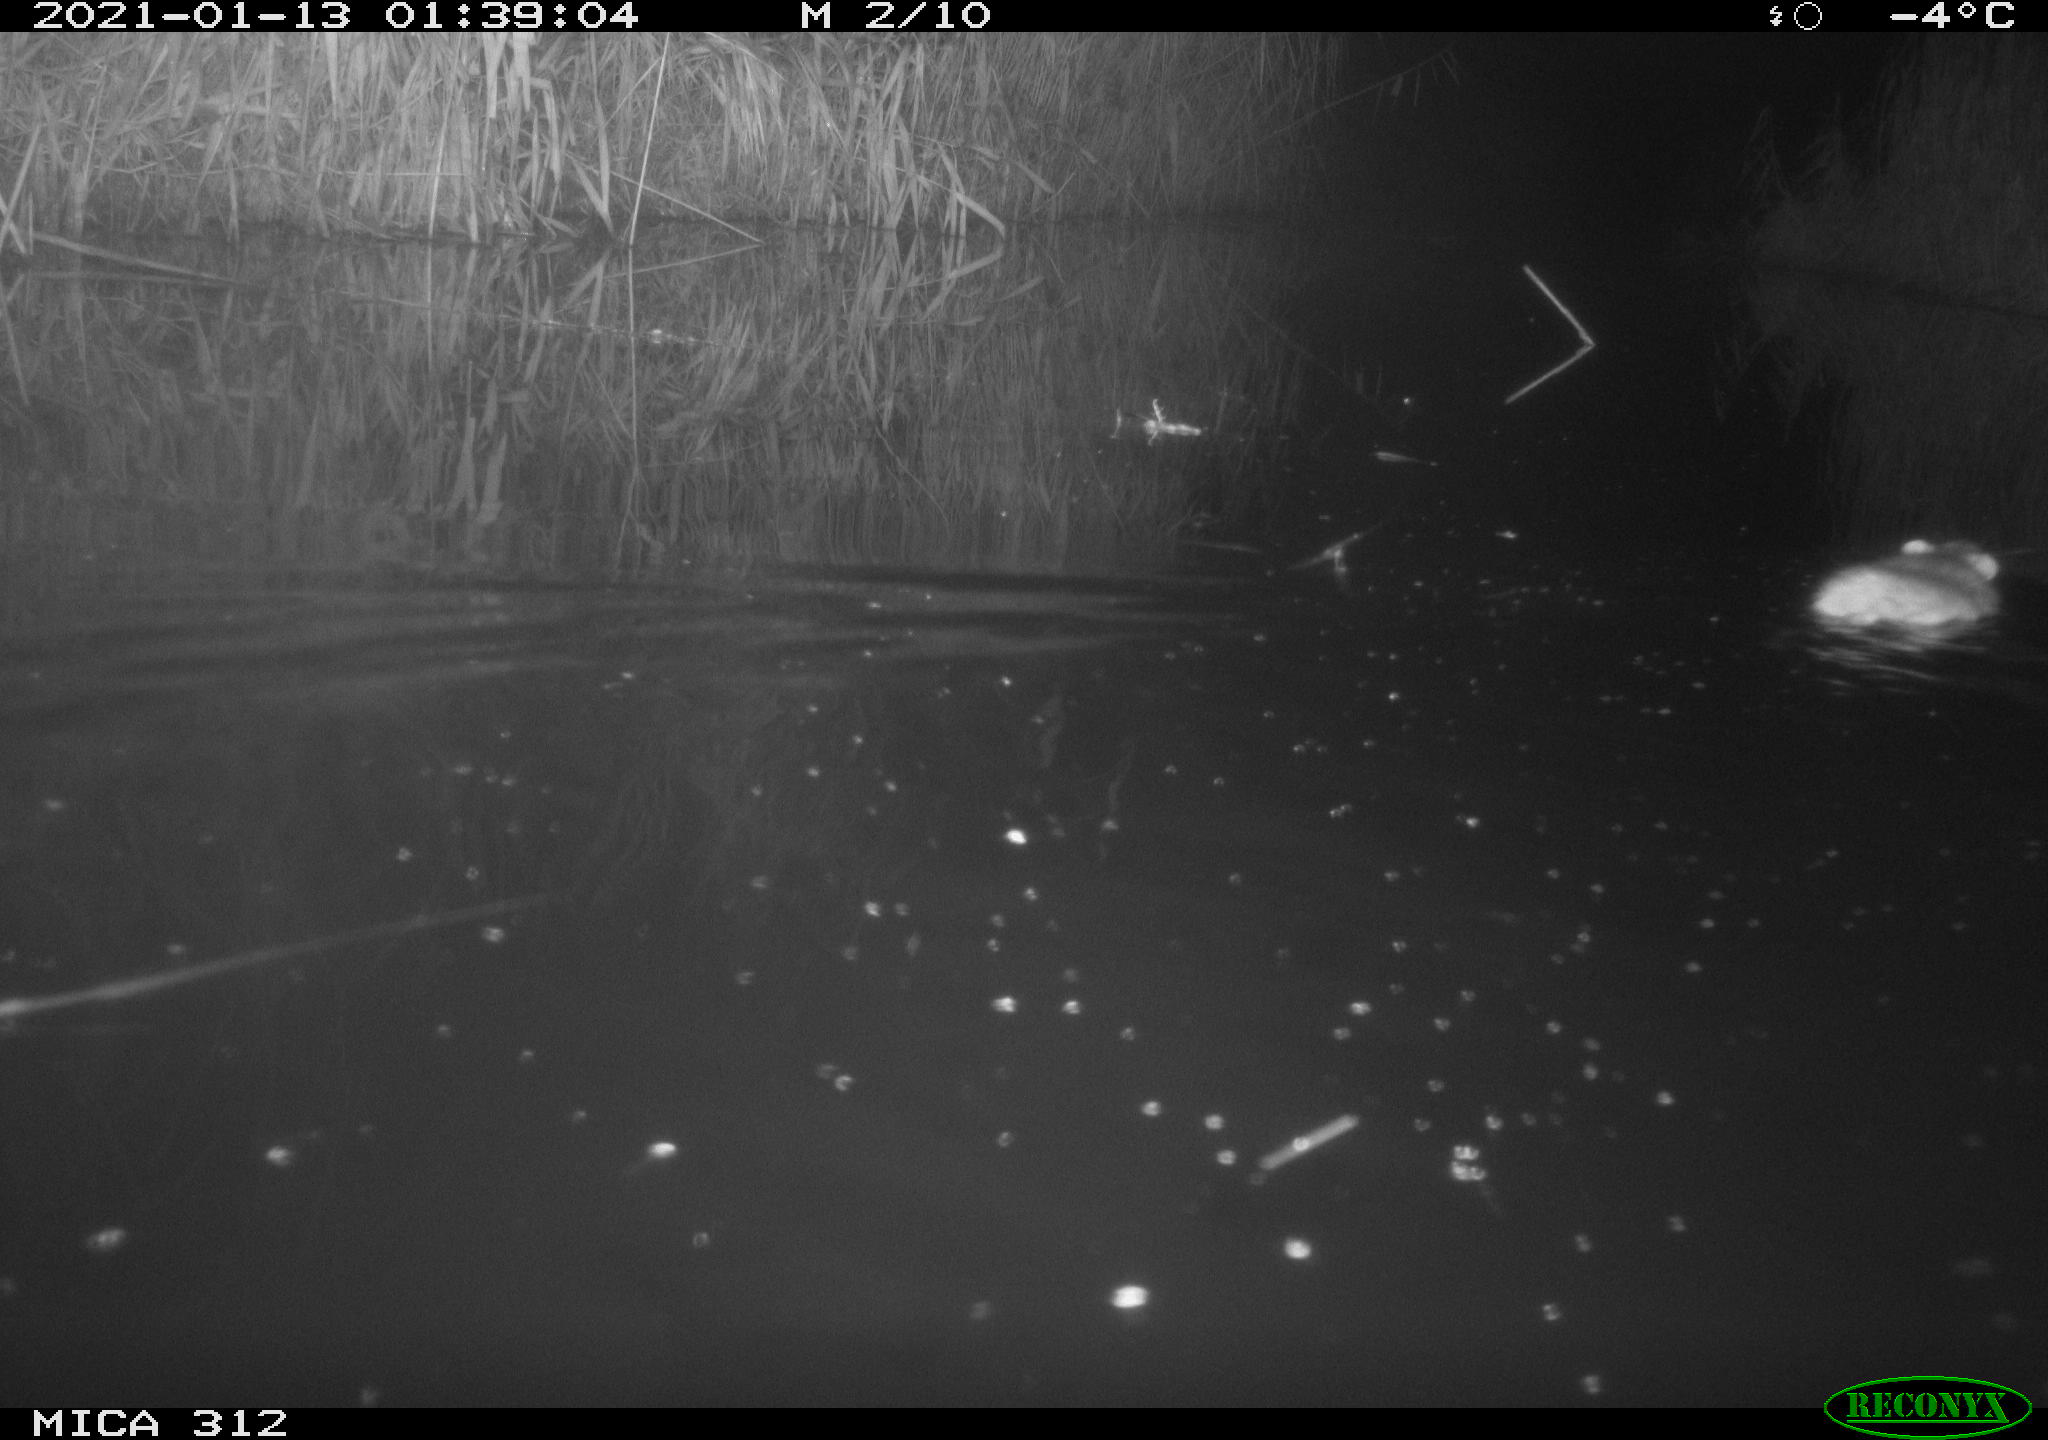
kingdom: Animalia
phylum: Chordata
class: Mammalia
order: Rodentia
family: Muridae
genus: Rattus
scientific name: Rattus norvegicus
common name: Brown rat
